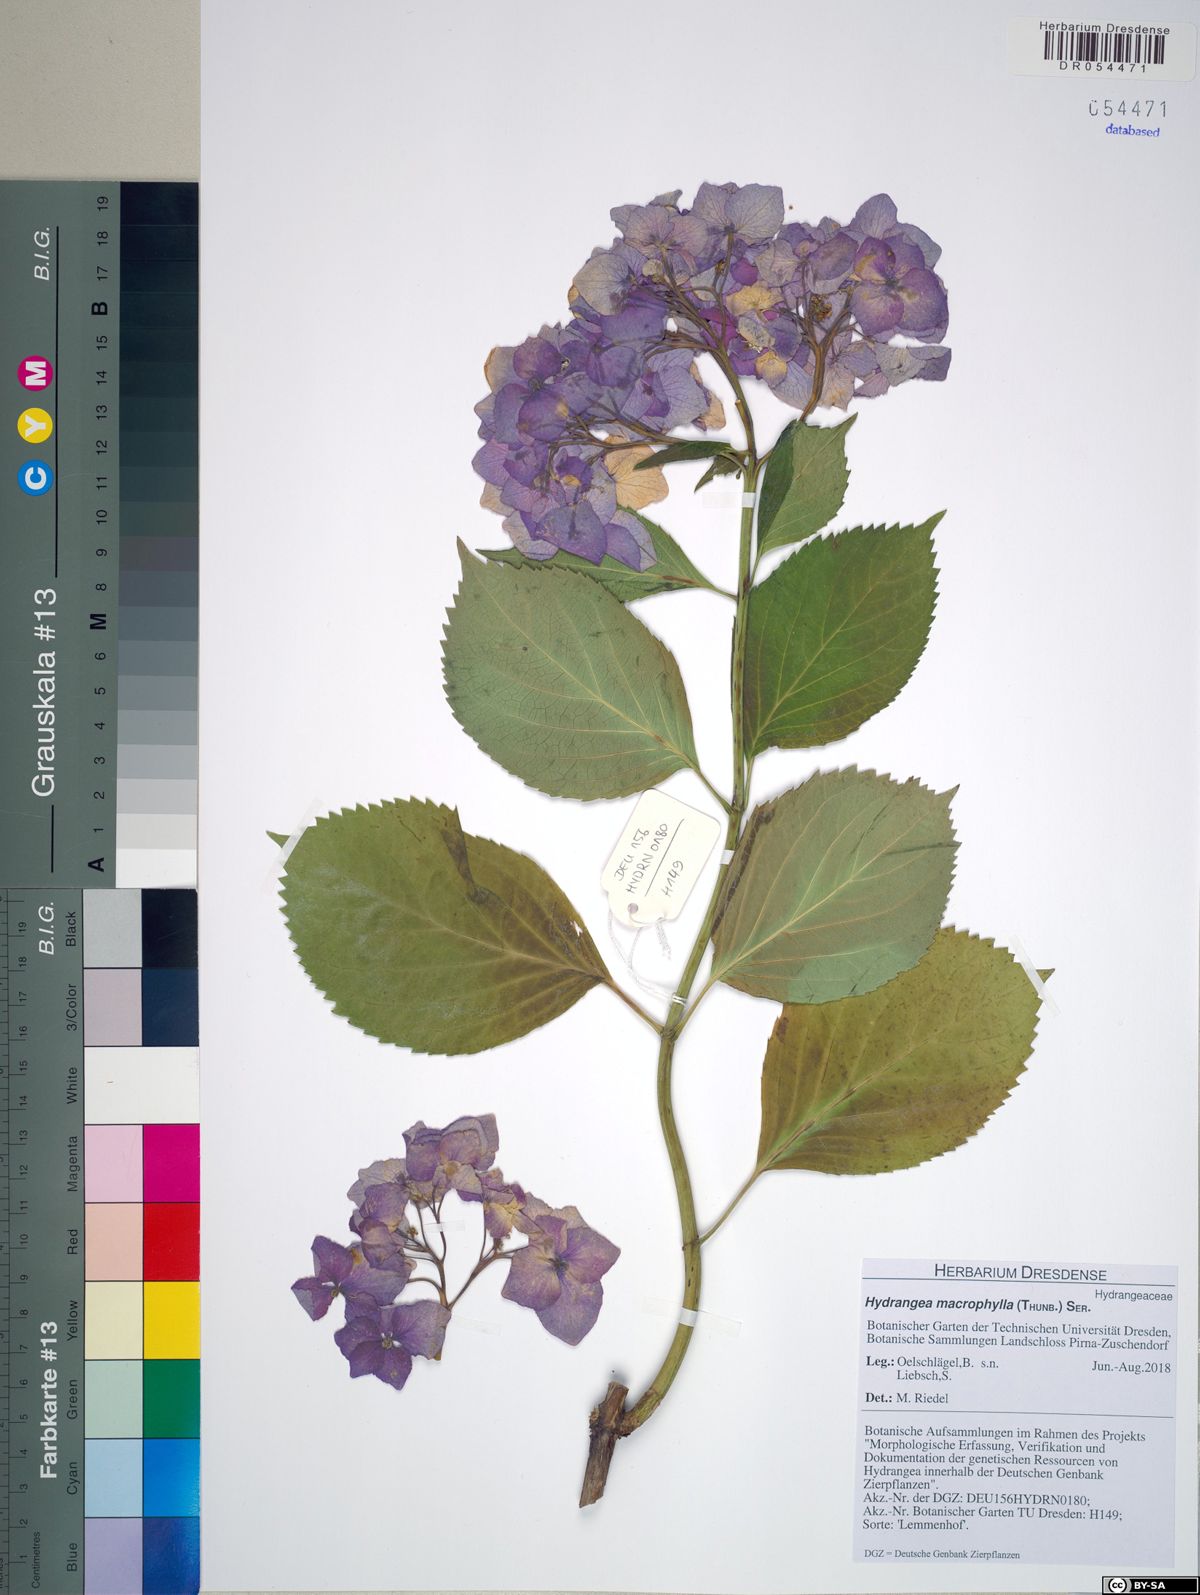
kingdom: Plantae
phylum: Tracheophyta
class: Magnoliopsida
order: Cornales
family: Hydrangeaceae
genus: Hydrangea
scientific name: Hydrangea macrophylla
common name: Hydrangea
